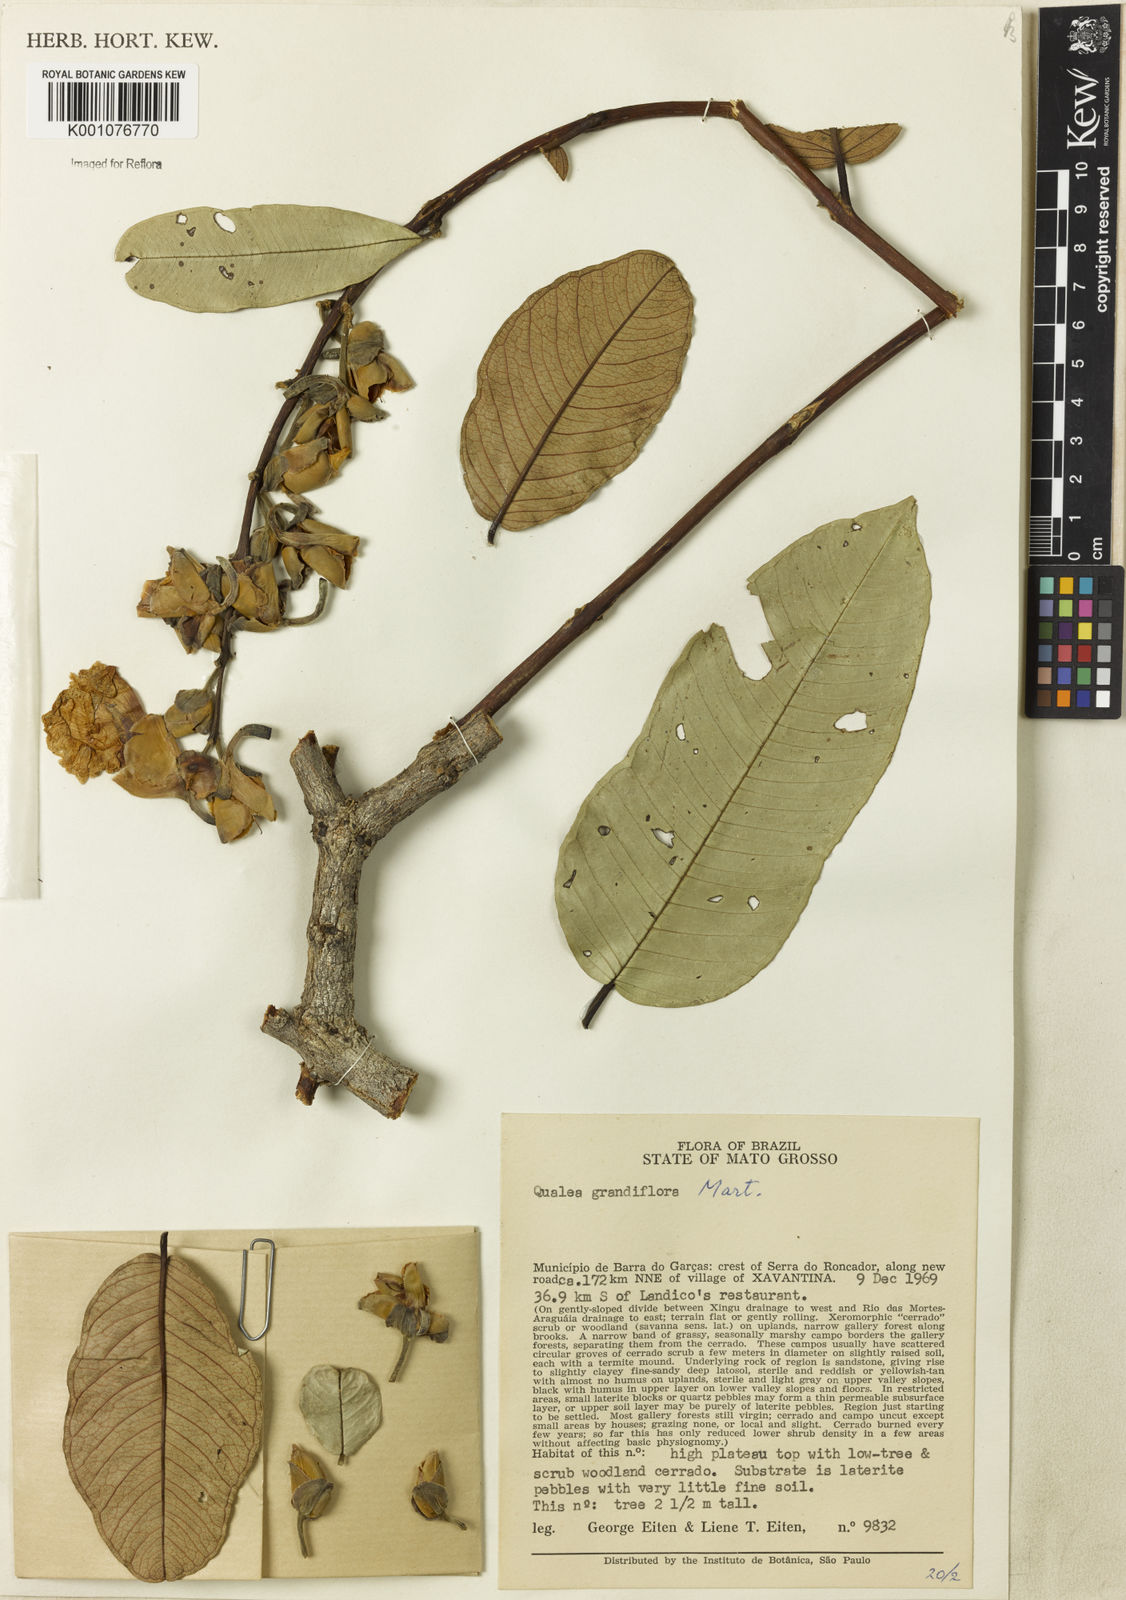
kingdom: Plantae
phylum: Tracheophyta
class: Magnoliopsida
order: Myrtales
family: Vochysiaceae
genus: Qualea
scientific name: Qualea grandiflora
